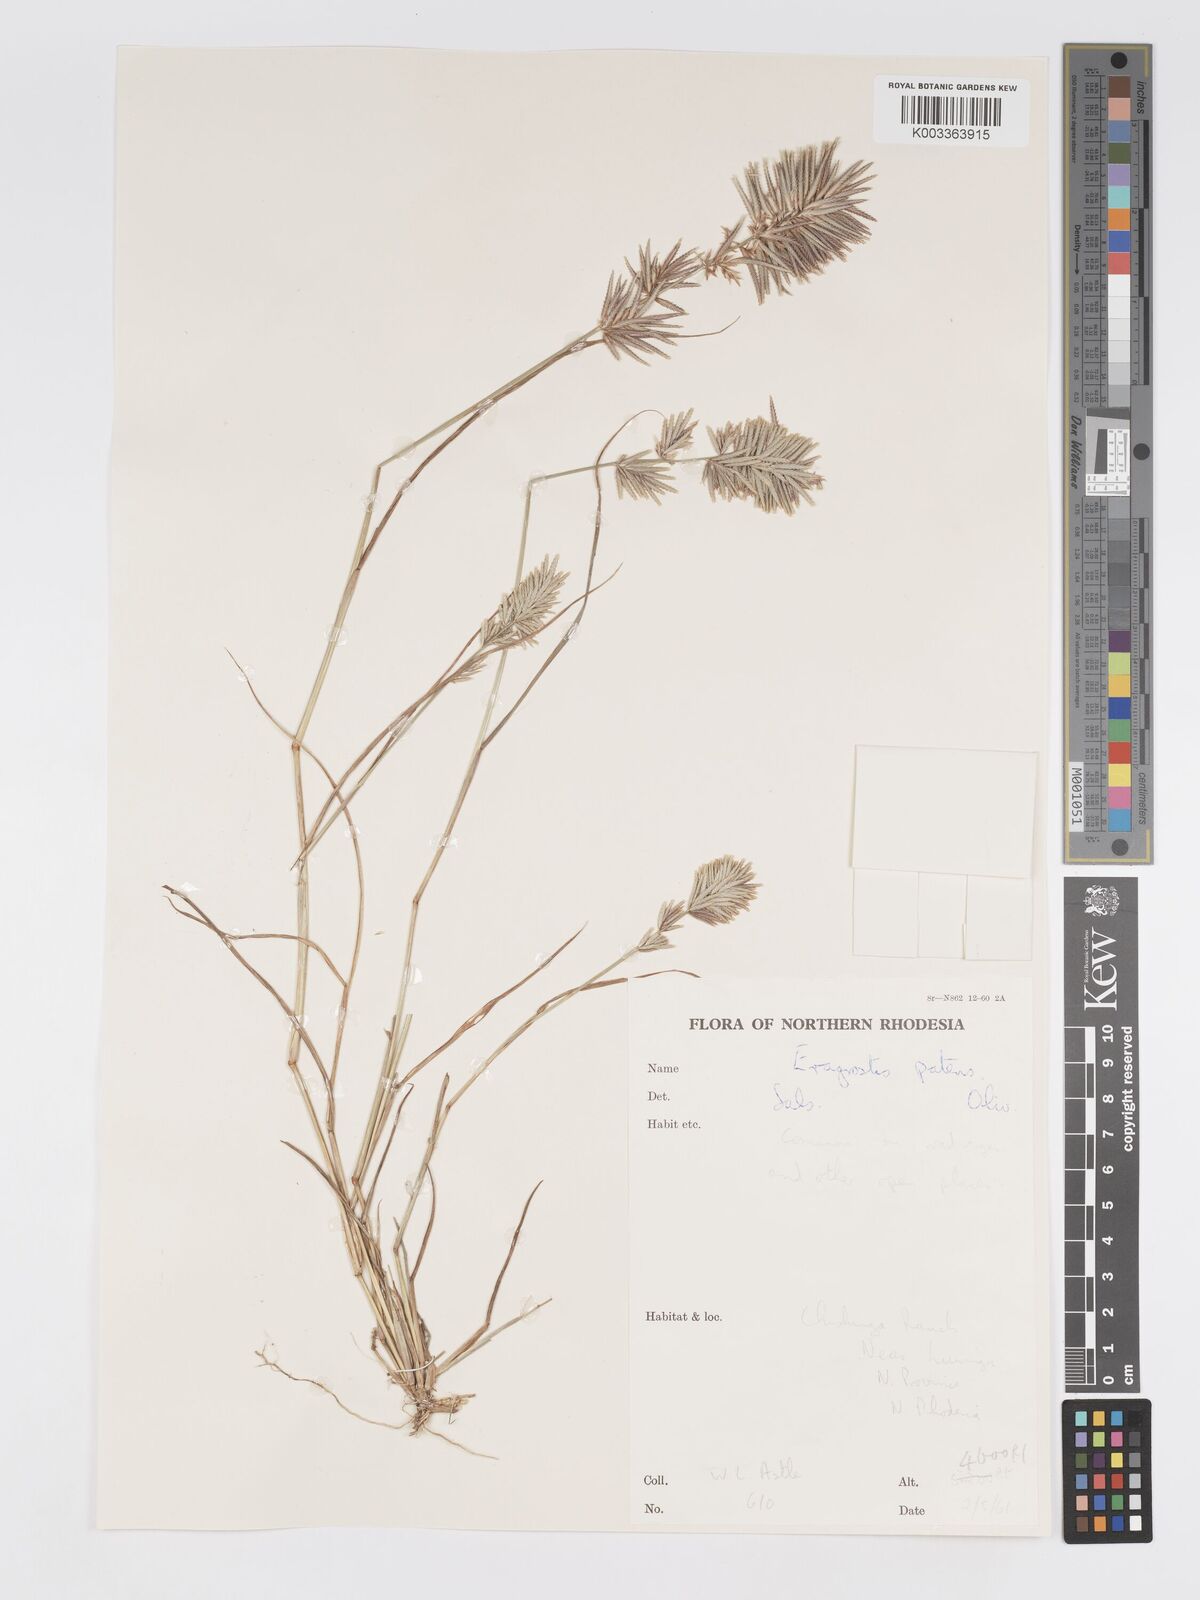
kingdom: Plantae
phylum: Tracheophyta
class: Liliopsida
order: Poales
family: Poaceae
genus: Eragrostis
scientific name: Eragrostis patens
